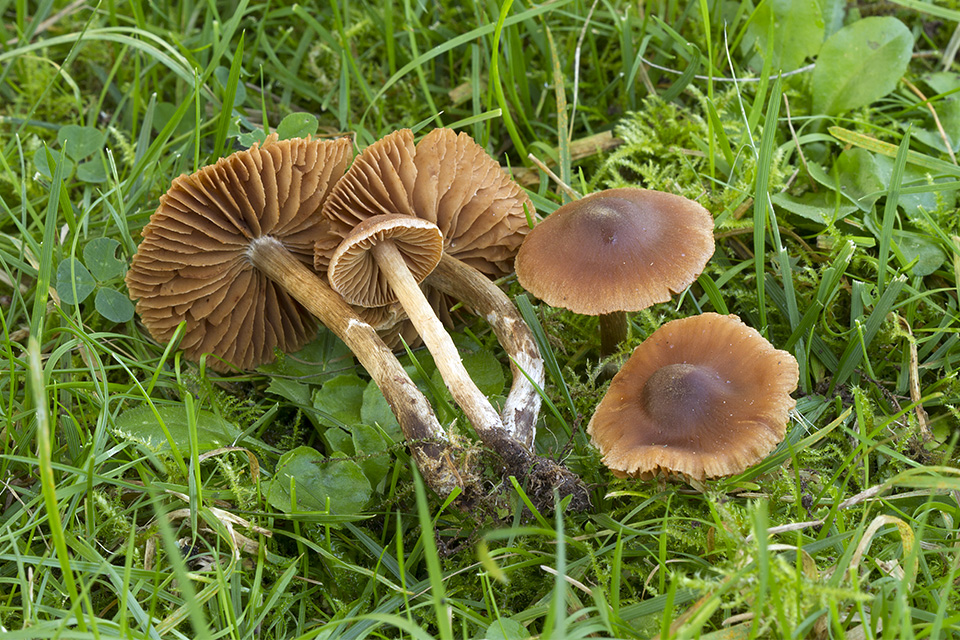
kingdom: Fungi
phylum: Basidiomycota
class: Agaricomycetes
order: Agaricales
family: Cortinariaceae
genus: Cortinarius
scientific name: Cortinarius
